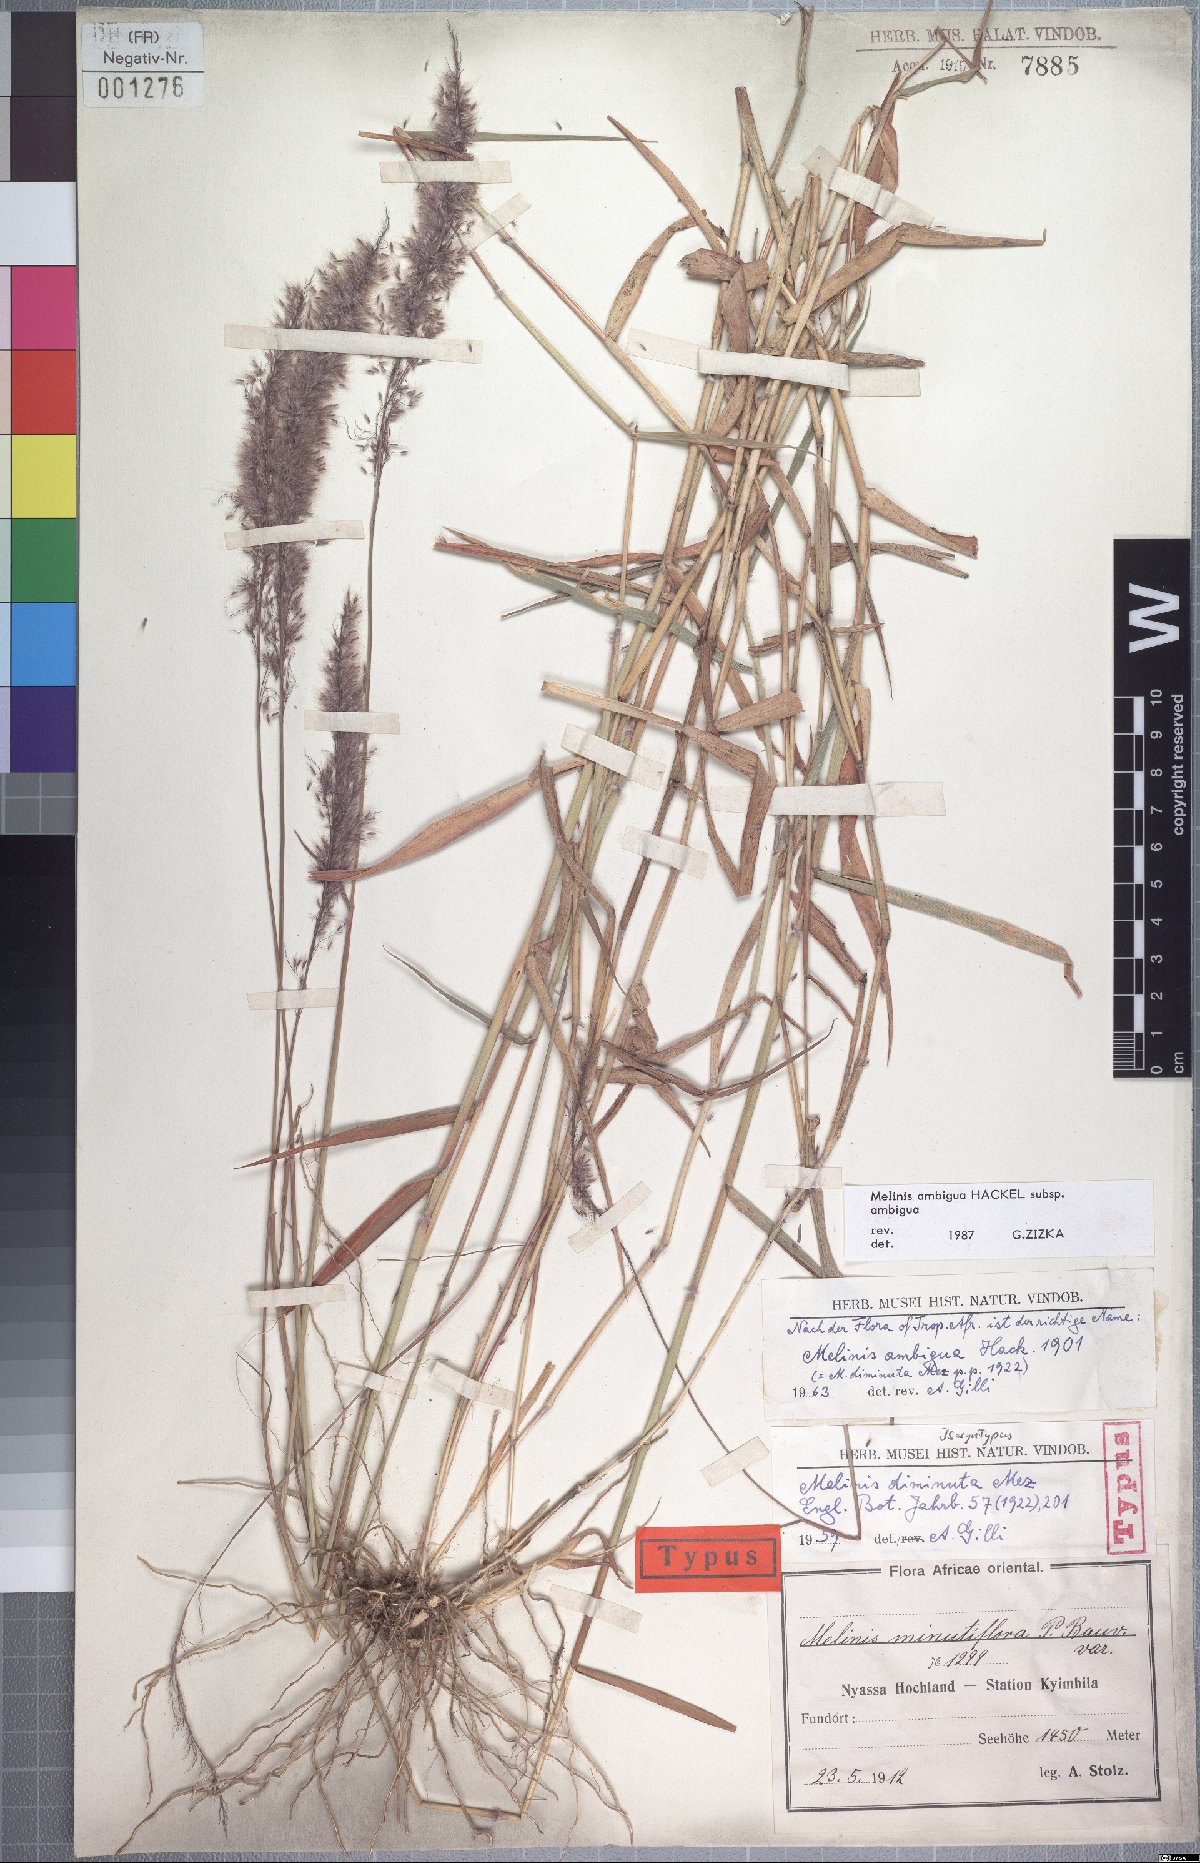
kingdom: Plantae
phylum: Tracheophyta
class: Liliopsida
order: Poales
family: Poaceae
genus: Melinis
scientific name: Melinis ambigua
